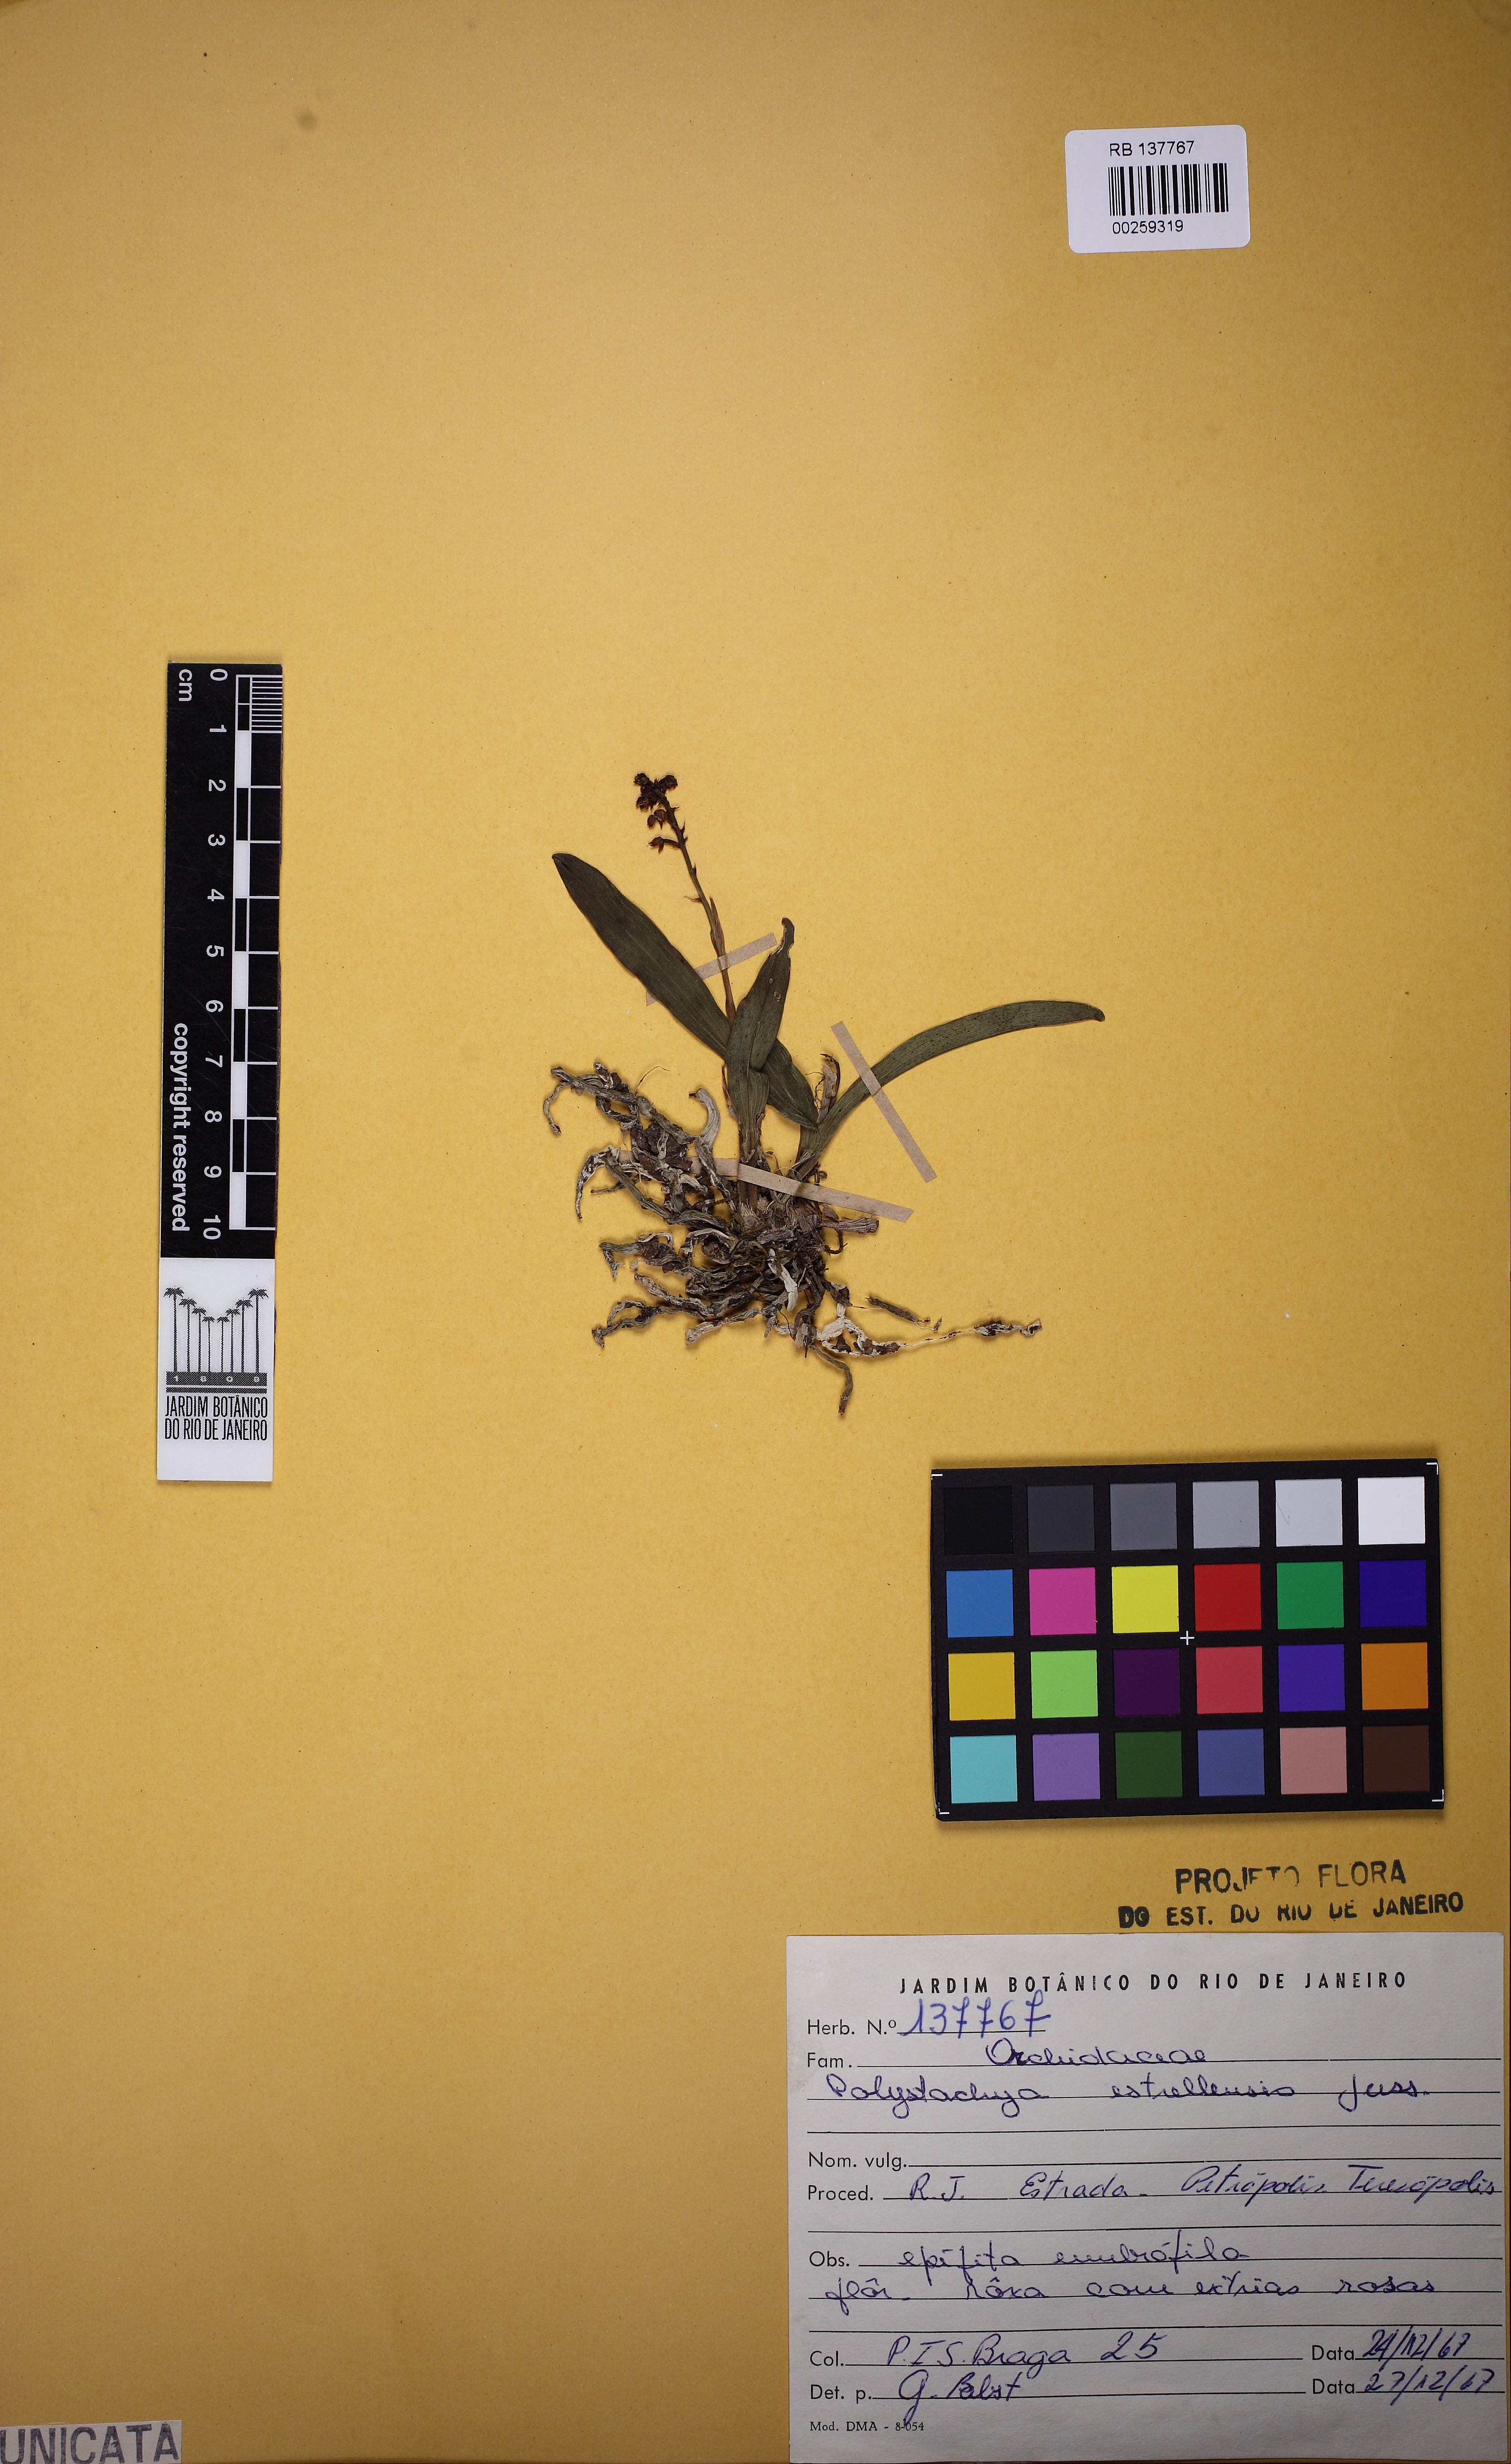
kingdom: Plantae
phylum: Tracheophyta
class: Liliopsida
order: Asparagales
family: Orchidaceae
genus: Polystachya
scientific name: Polystachya foliosa
